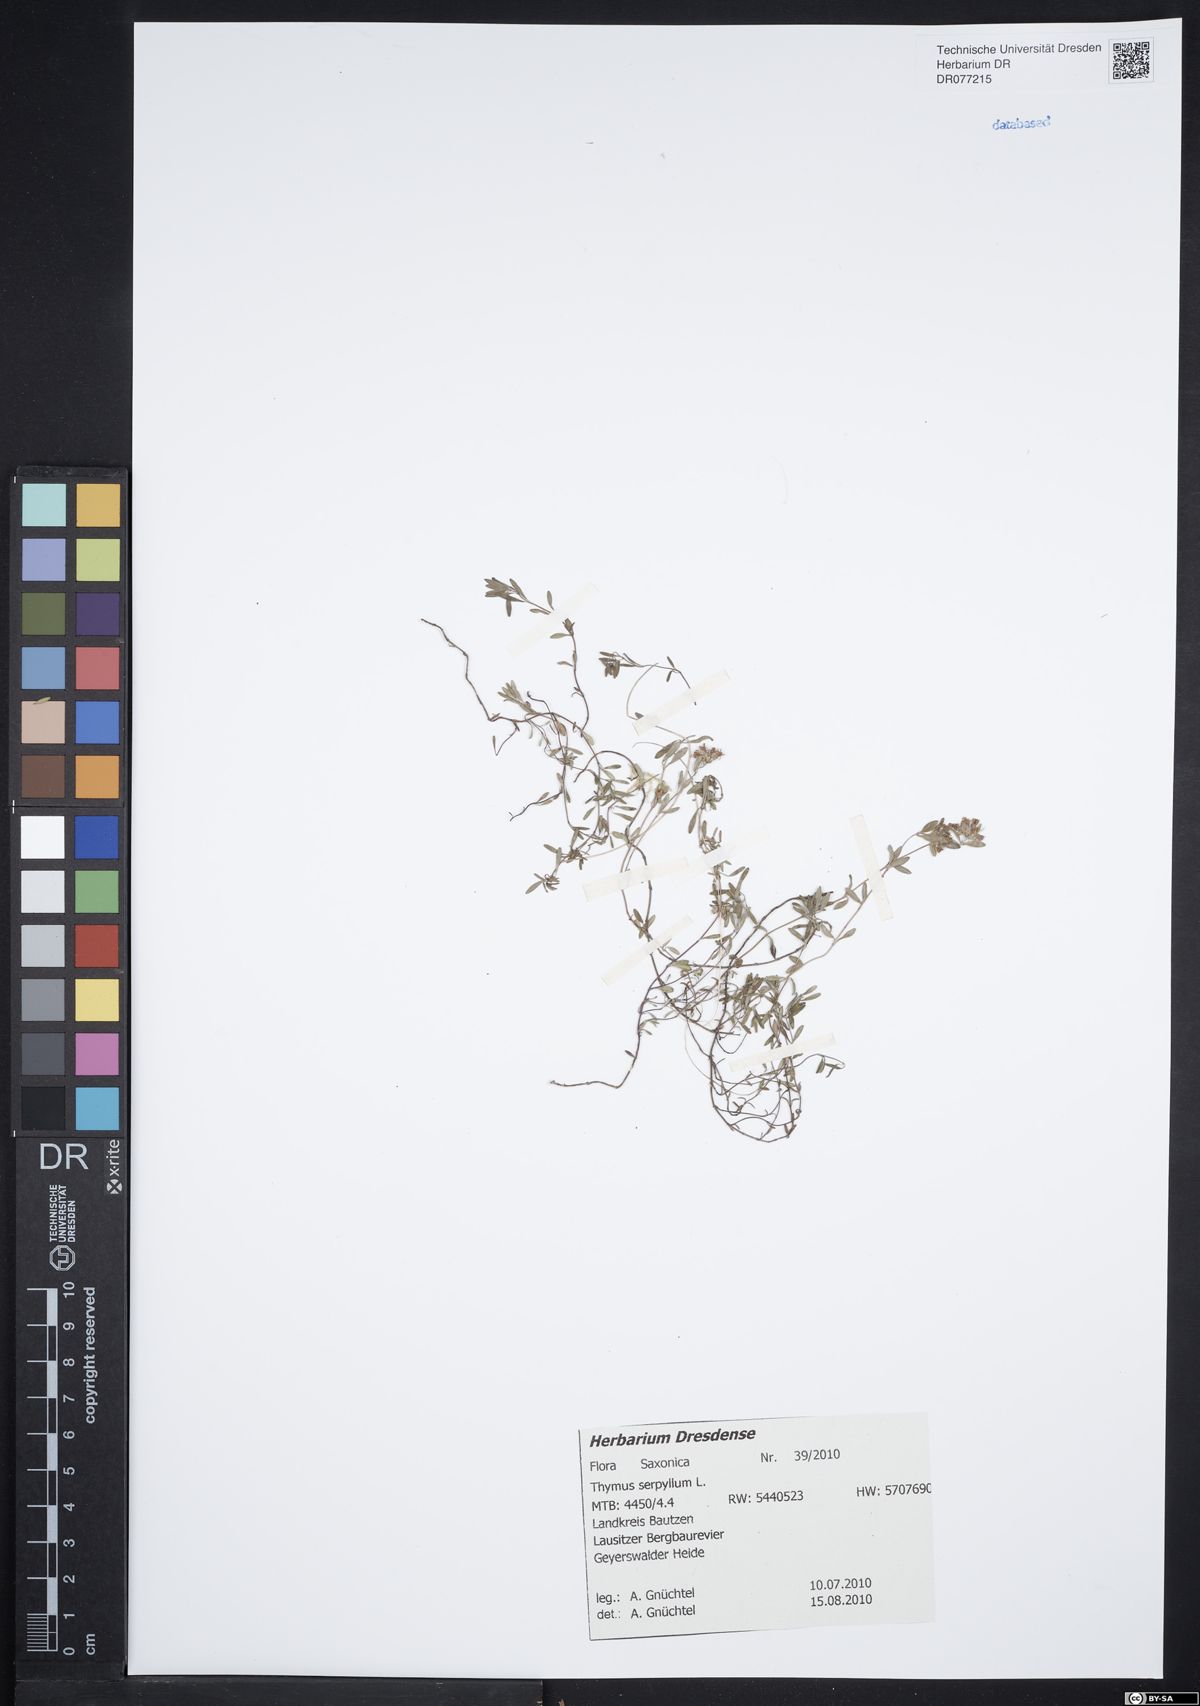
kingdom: Plantae
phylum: Tracheophyta
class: Magnoliopsida
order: Lamiales
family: Lamiaceae
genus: Thymus
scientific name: Thymus serpyllum
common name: Breckland thyme
